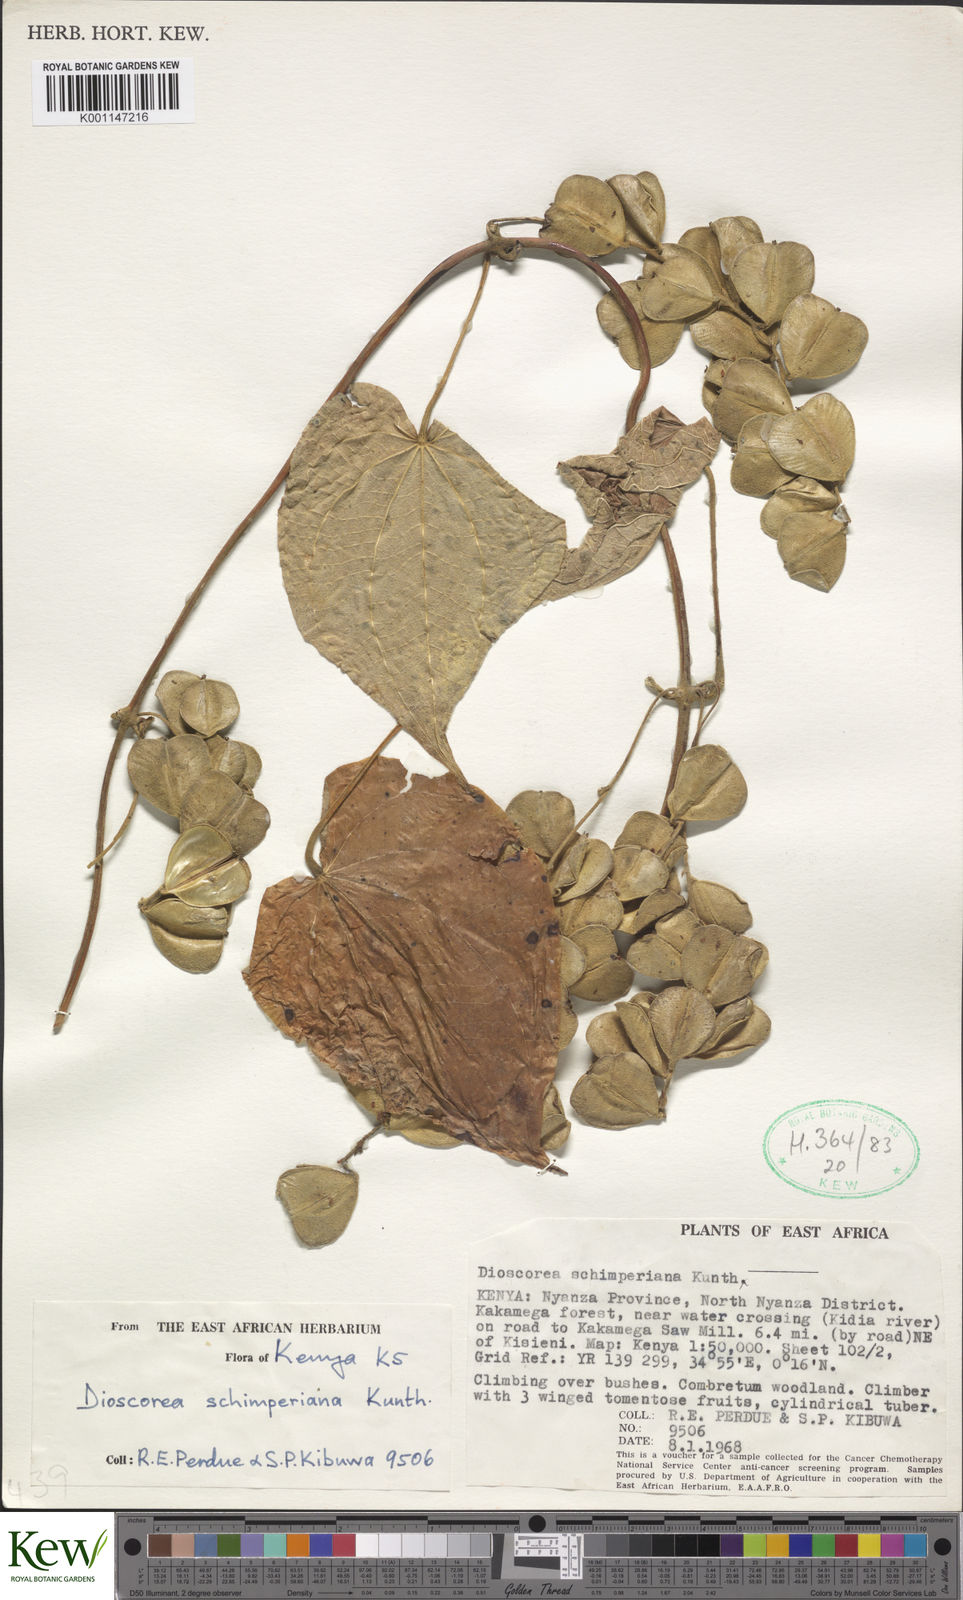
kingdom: Plantae
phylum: Tracheophyta
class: Liliopsida
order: Dioscoreales
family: Dioscoreaceae
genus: Dioscorea
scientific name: Dioscorea schimperiana
